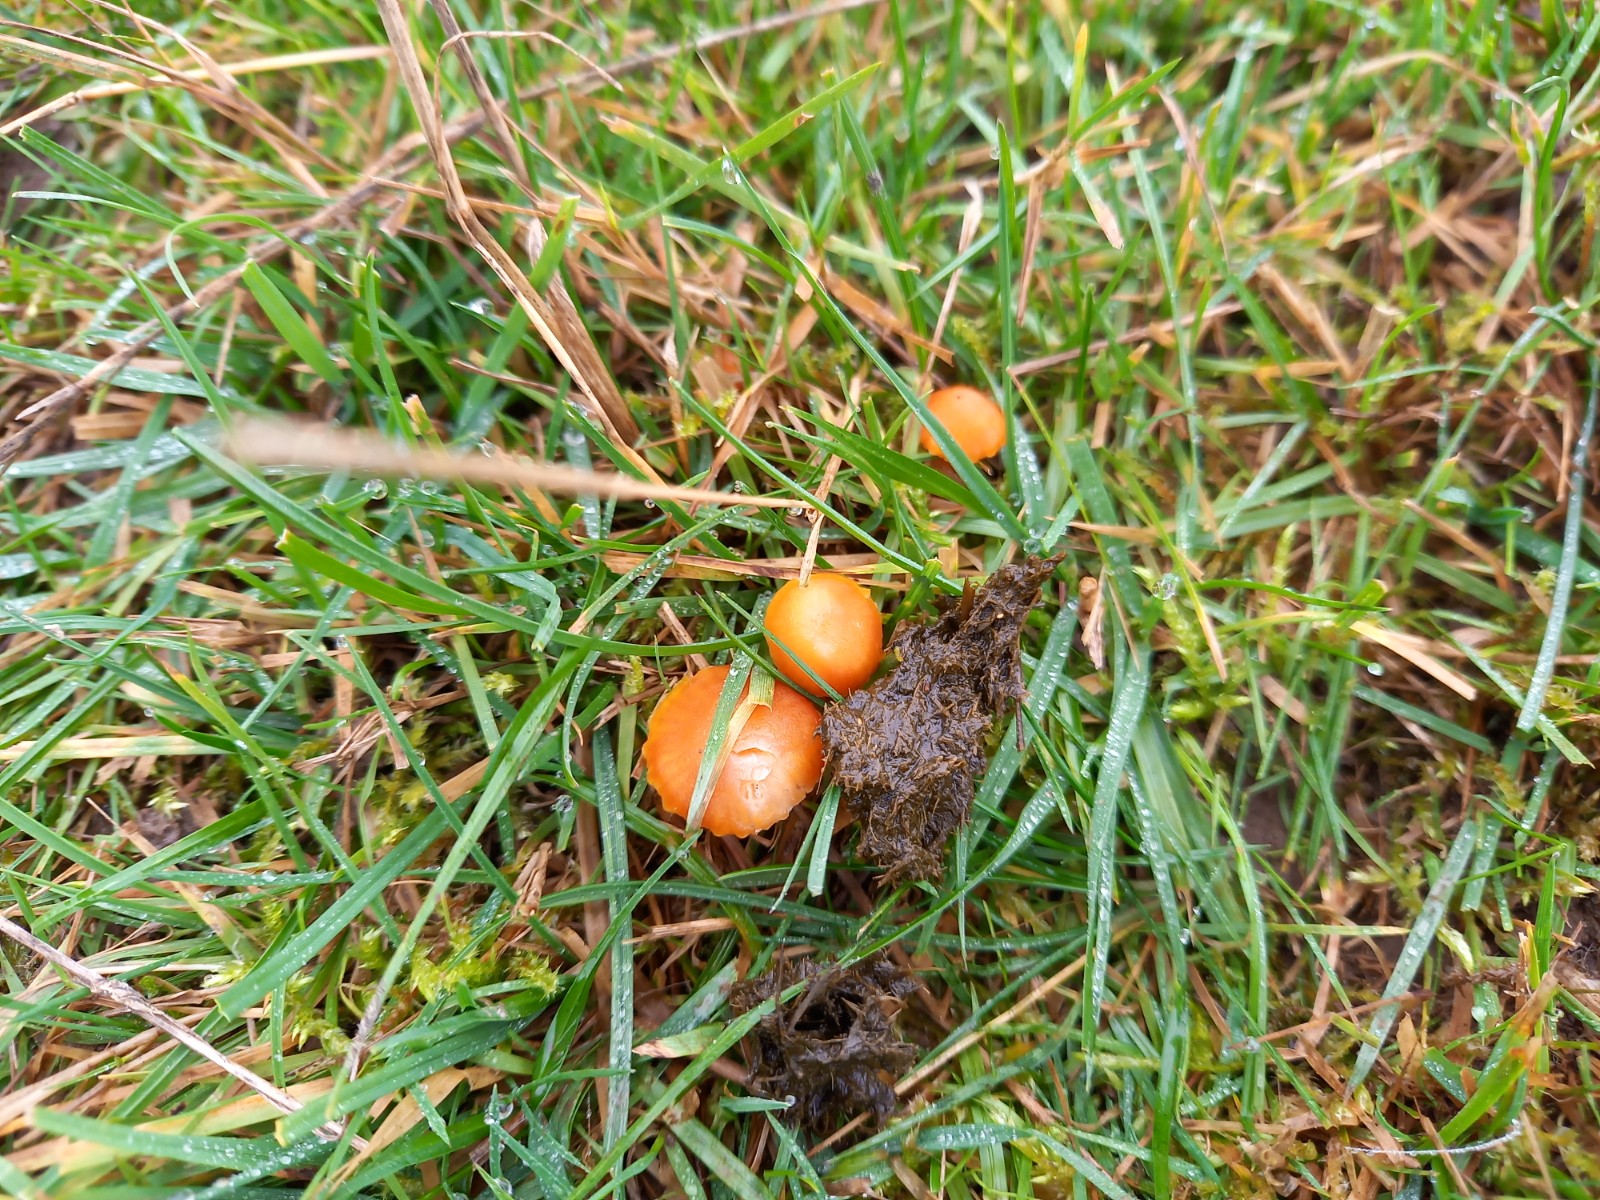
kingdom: Fungi
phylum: Basidiomycota
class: Agaricomycetes
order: Agaricales
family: Hygrophoraceae
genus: Hygrocybe
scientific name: Hygrocybe miniata
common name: mønje-vokshat
